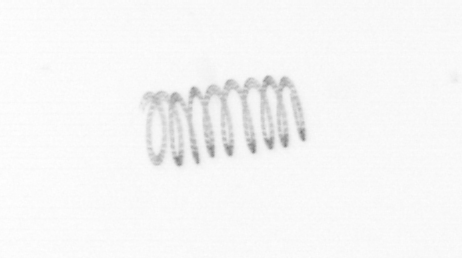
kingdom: Chromista
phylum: Ochrophyta
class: Bacillariophyceae
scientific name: Bacillariophyceae
